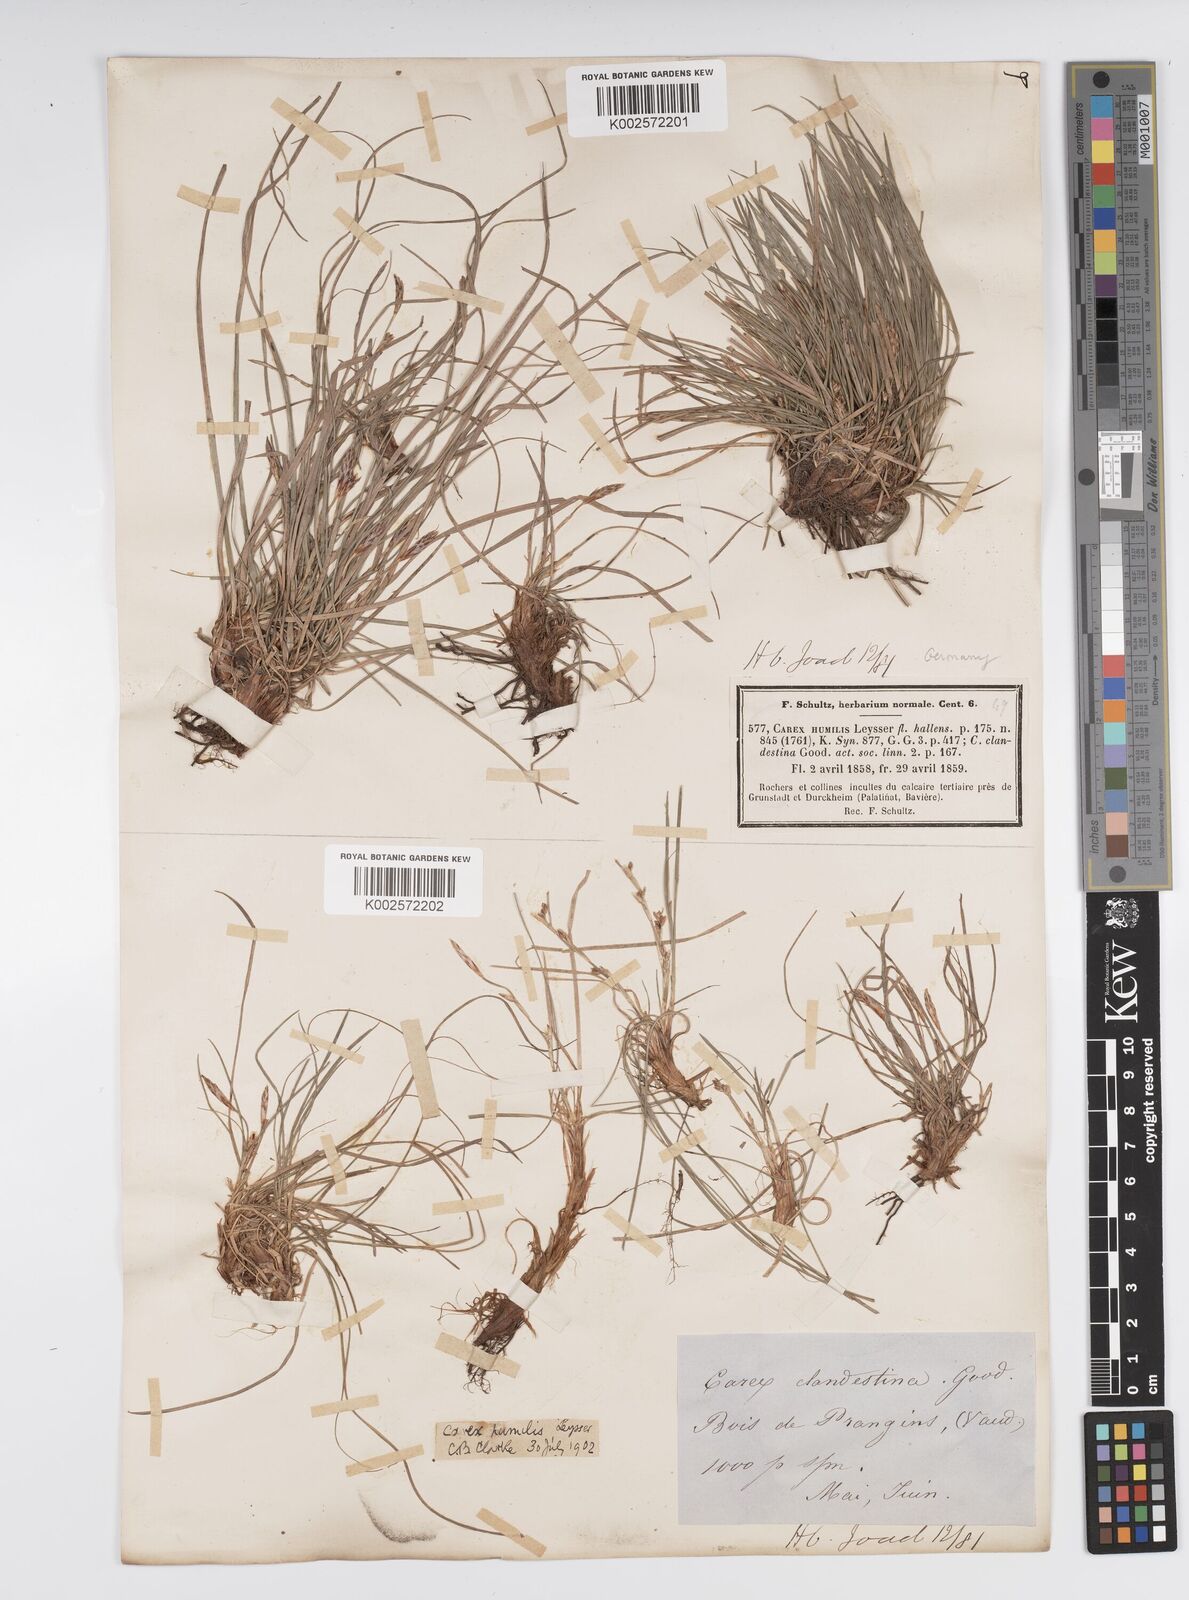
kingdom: Plantae
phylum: Tracheophyta
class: Liliopsida
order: Poales
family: Cyperaceae
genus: Carex
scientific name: Carex humilis
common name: Dwarf sedge
